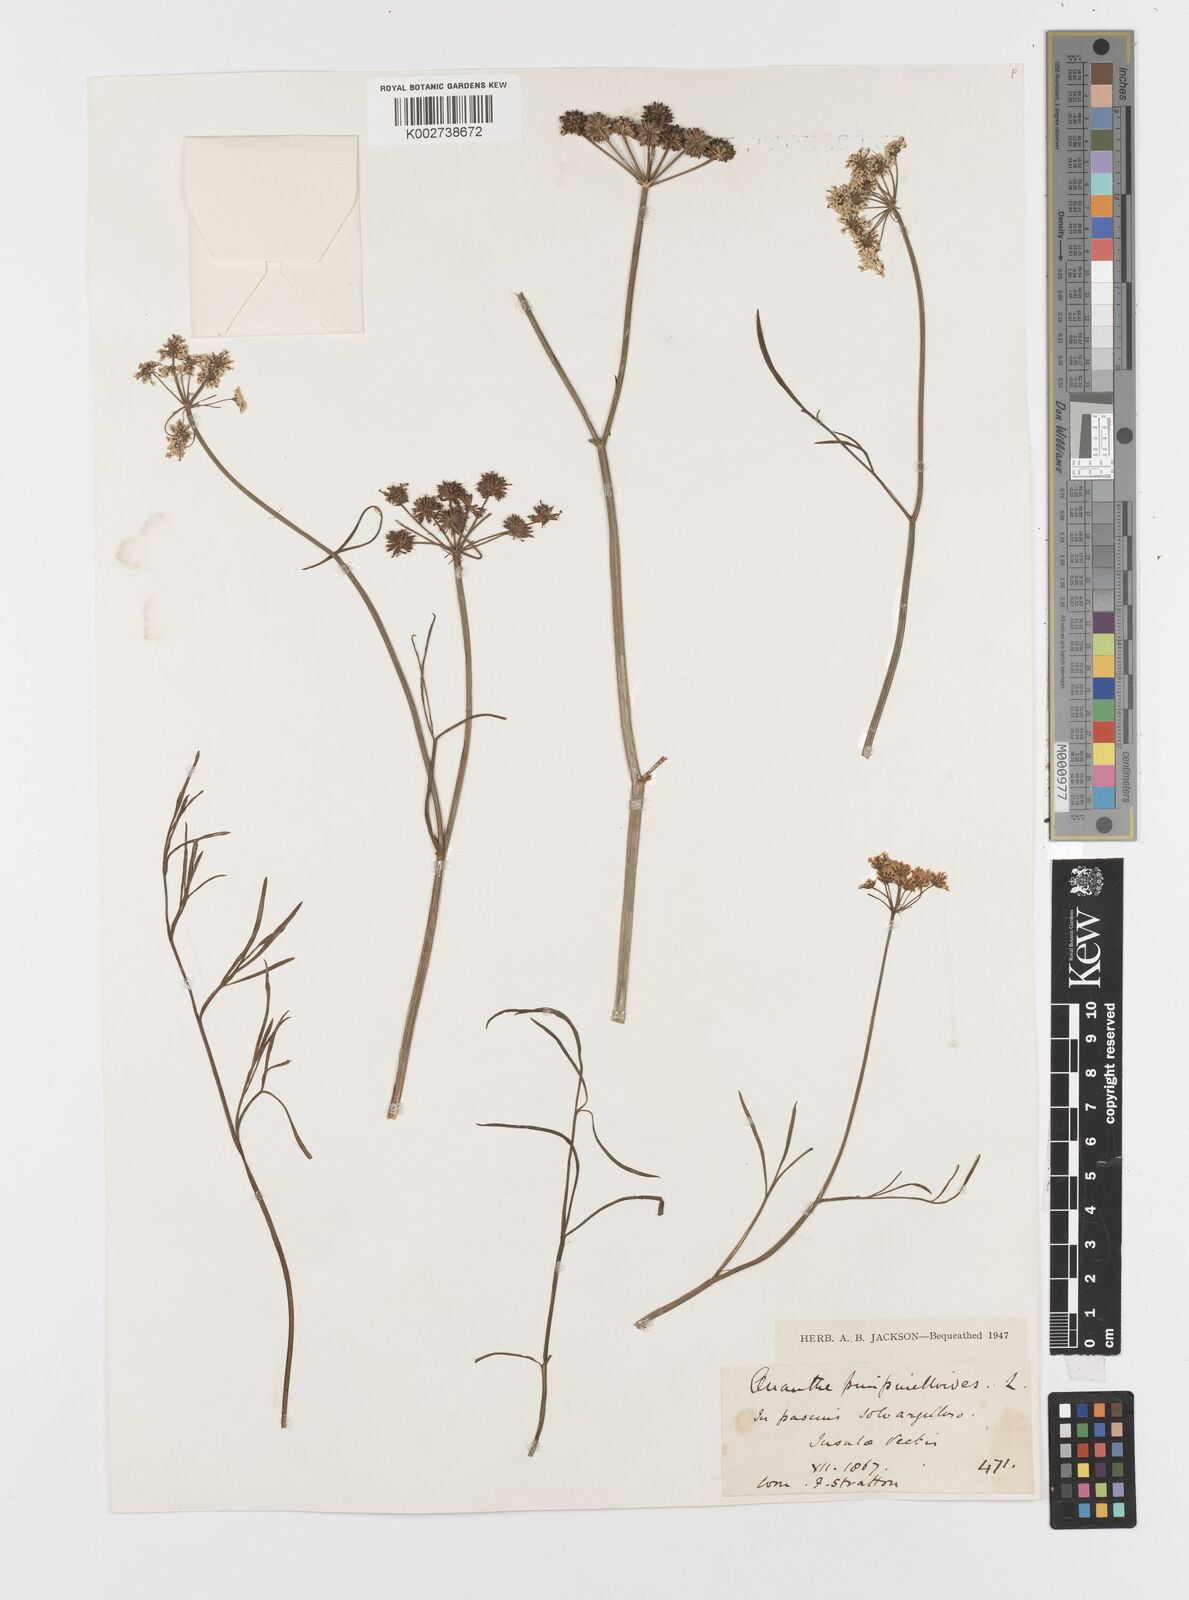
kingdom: Plantae
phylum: Tracheophyta
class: Magnoliopsida
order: Apiales
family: Apiaceae
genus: Oenanthe
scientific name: Oenanthe pimpinelloides
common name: Corky-fruited water-dropwort
